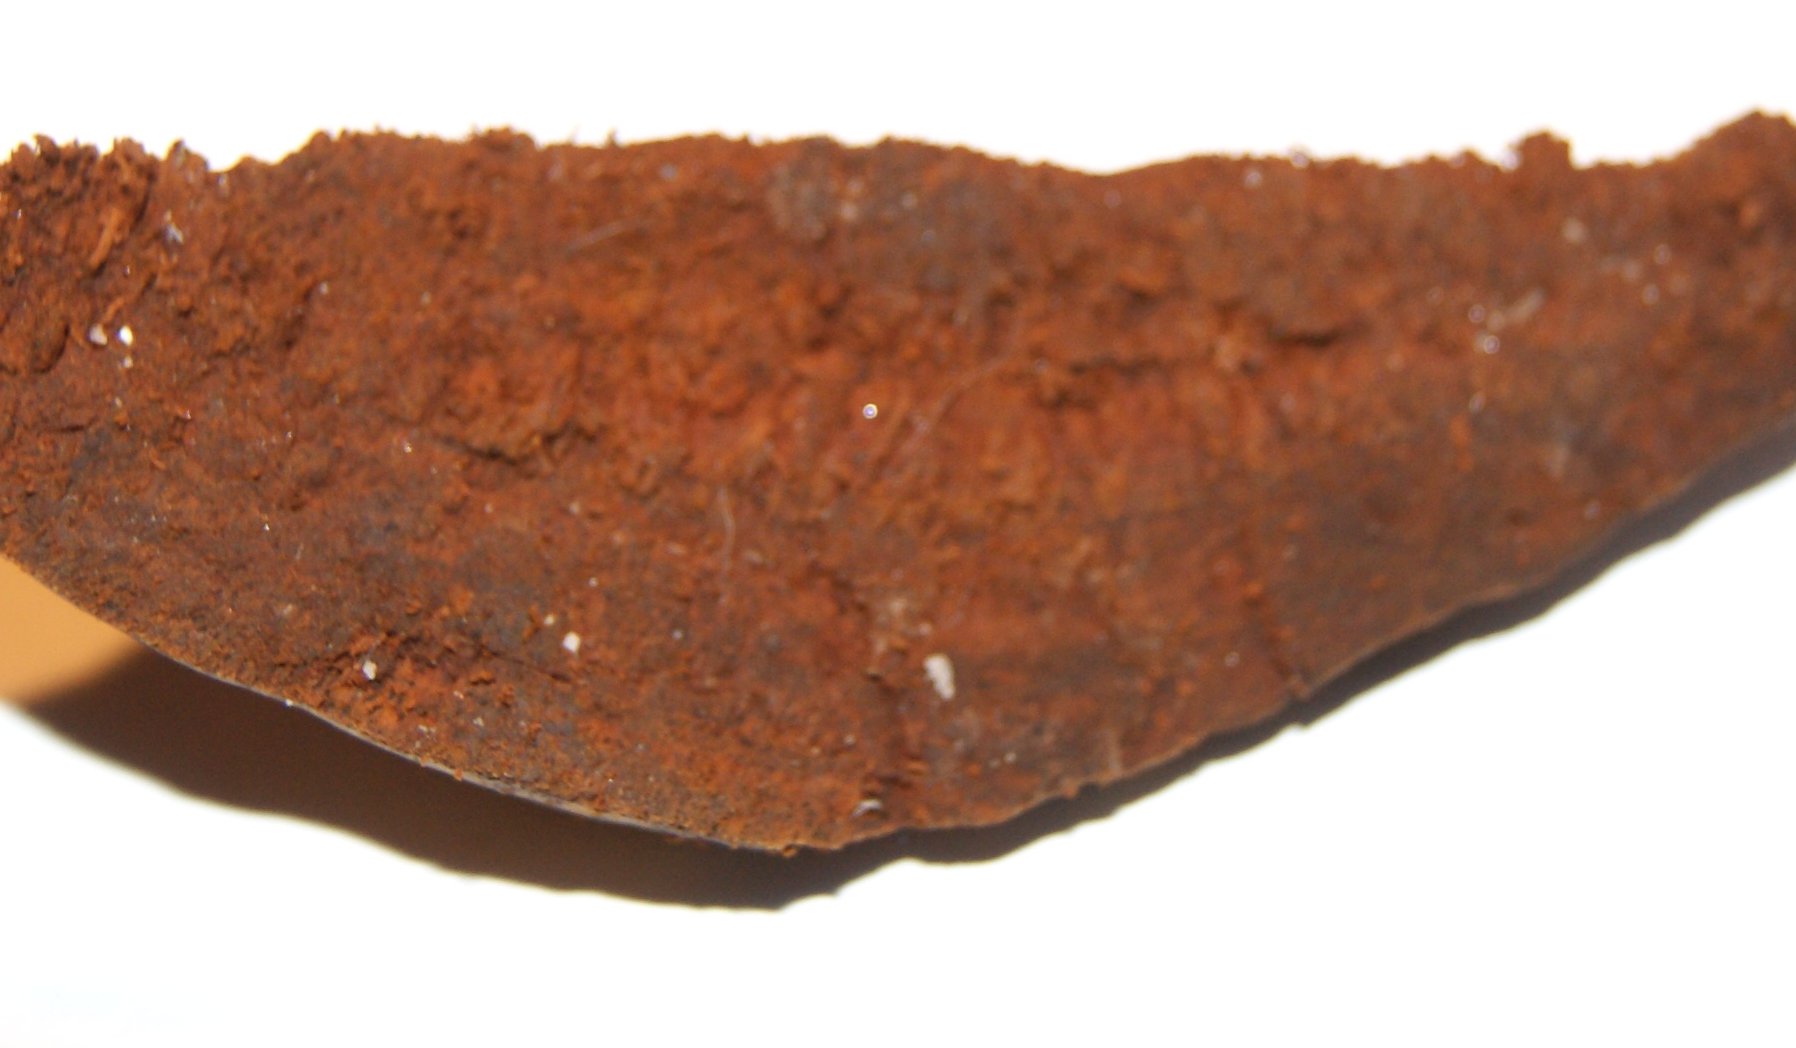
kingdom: Fungi
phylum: Basidiomycota
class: Agaricomycetes
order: Hymenochaetales
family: Hymenochaetaceae
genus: Phellinus
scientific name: Phellinus populicola
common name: poppel-ildporesvamp
